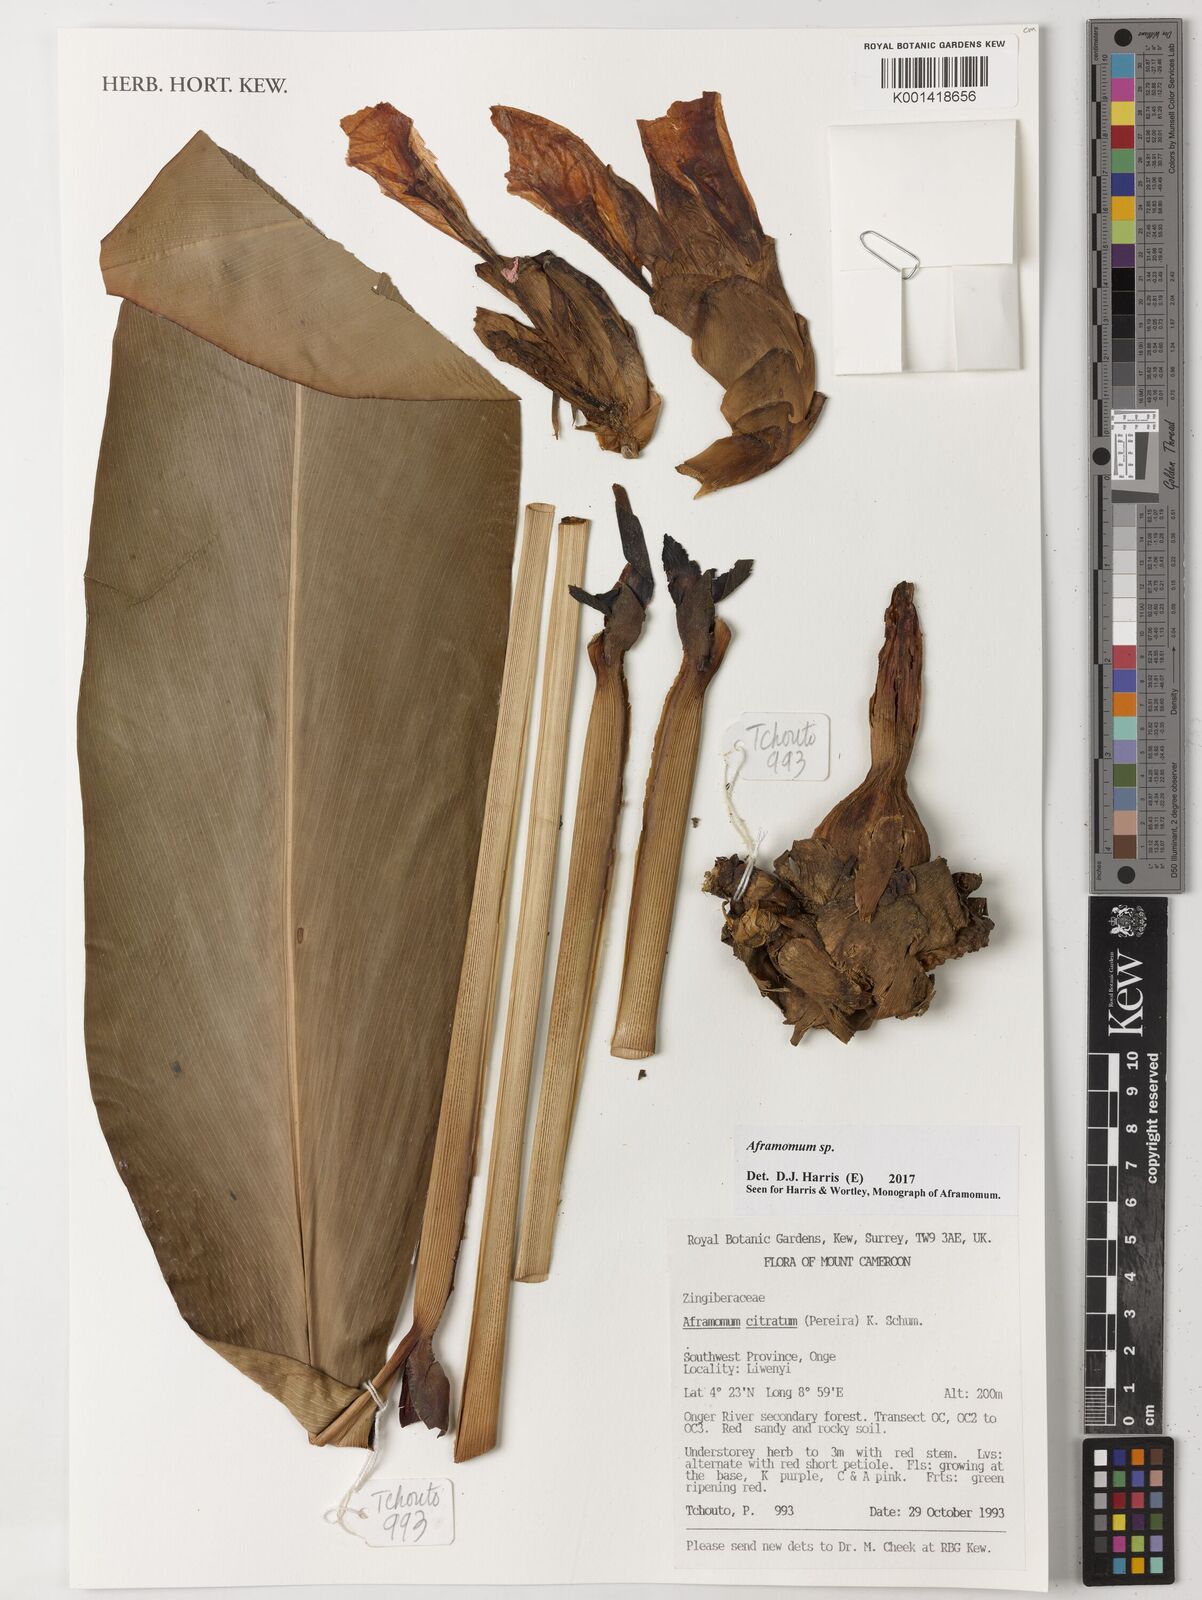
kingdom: Plantae
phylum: Tracheophyta
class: Liliopsida
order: Zingiberales
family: Zingiberaceae
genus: Aframomum
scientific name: Aframomum
